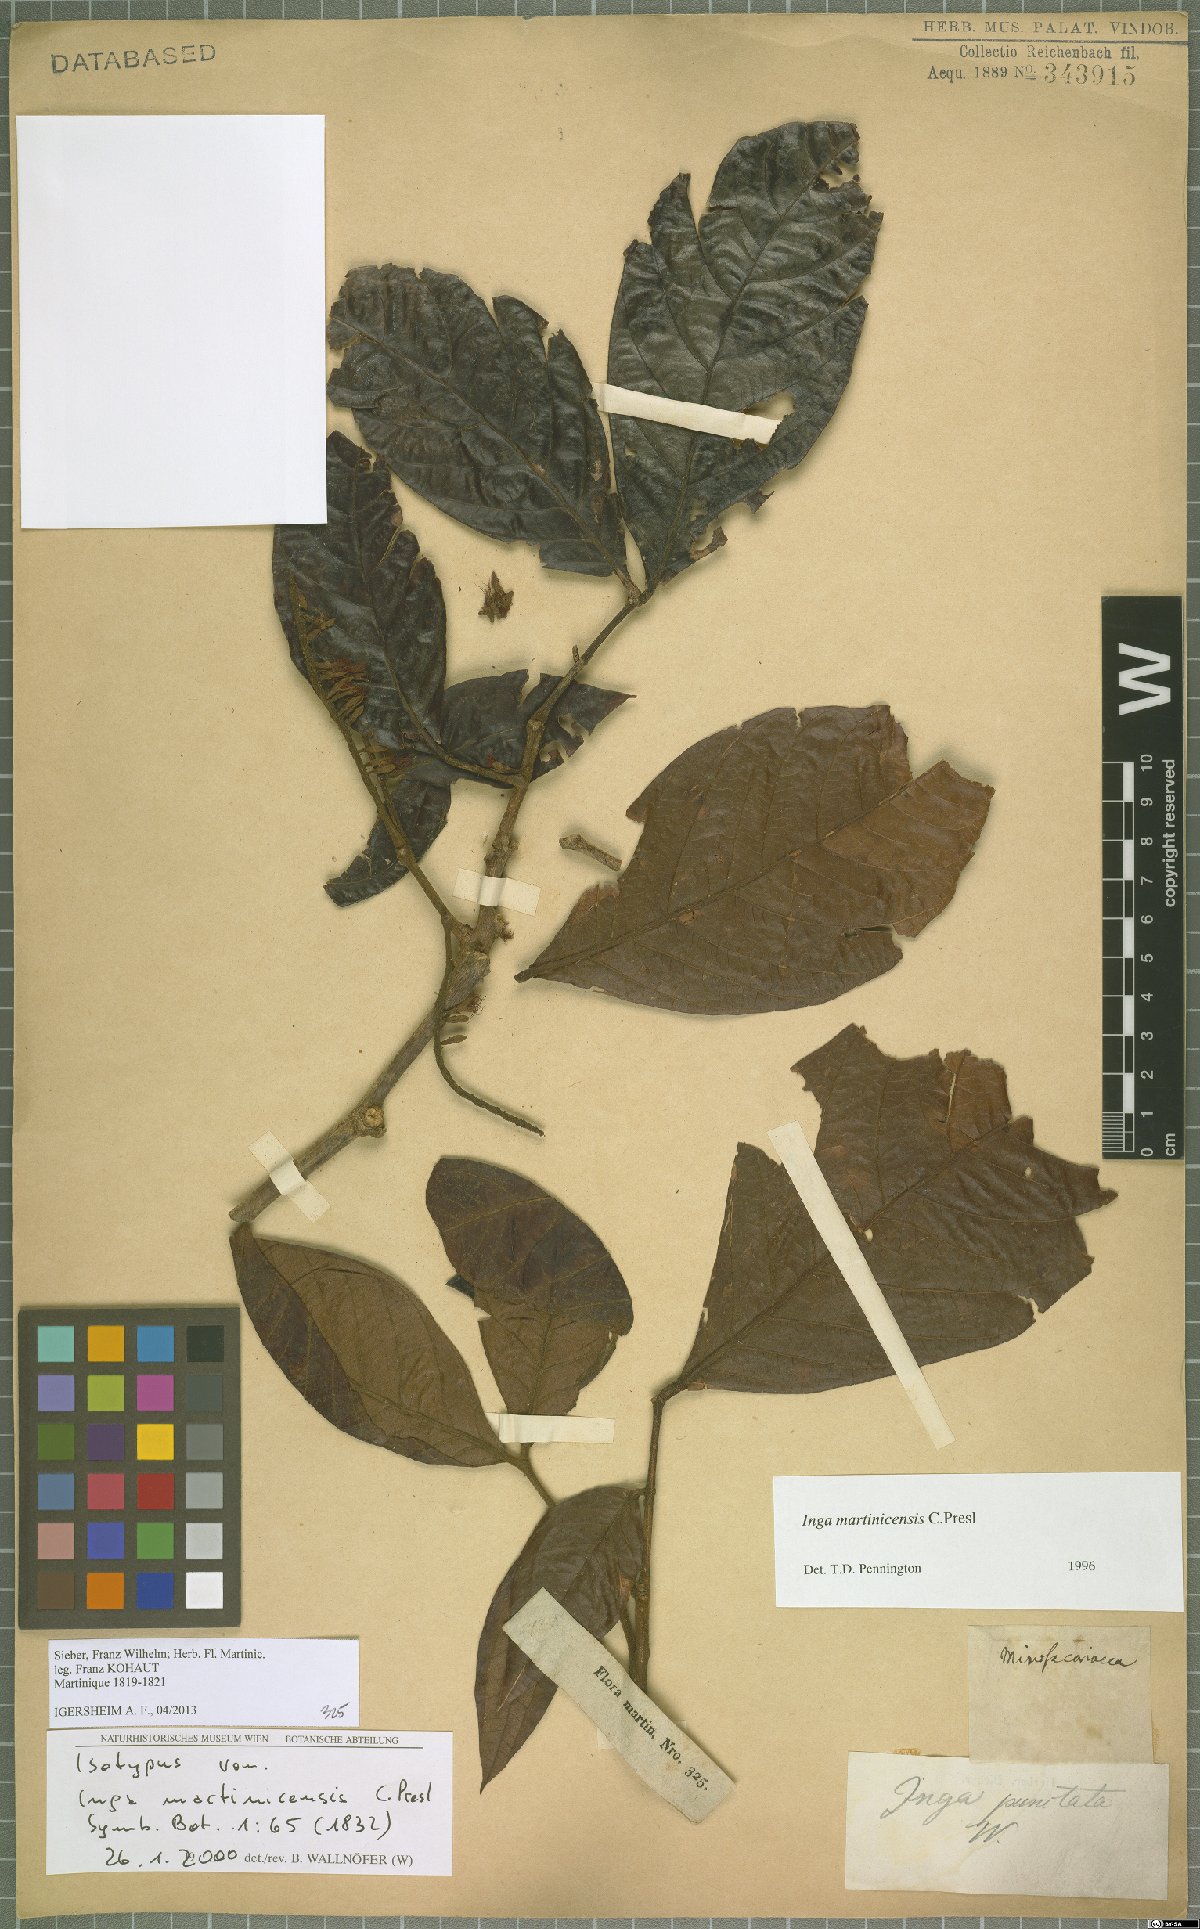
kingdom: Plantae
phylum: Tracheophyta
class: Magnoliopsida
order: Fabales
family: Fabaceae
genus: Inga
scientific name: Inga martinicensis
